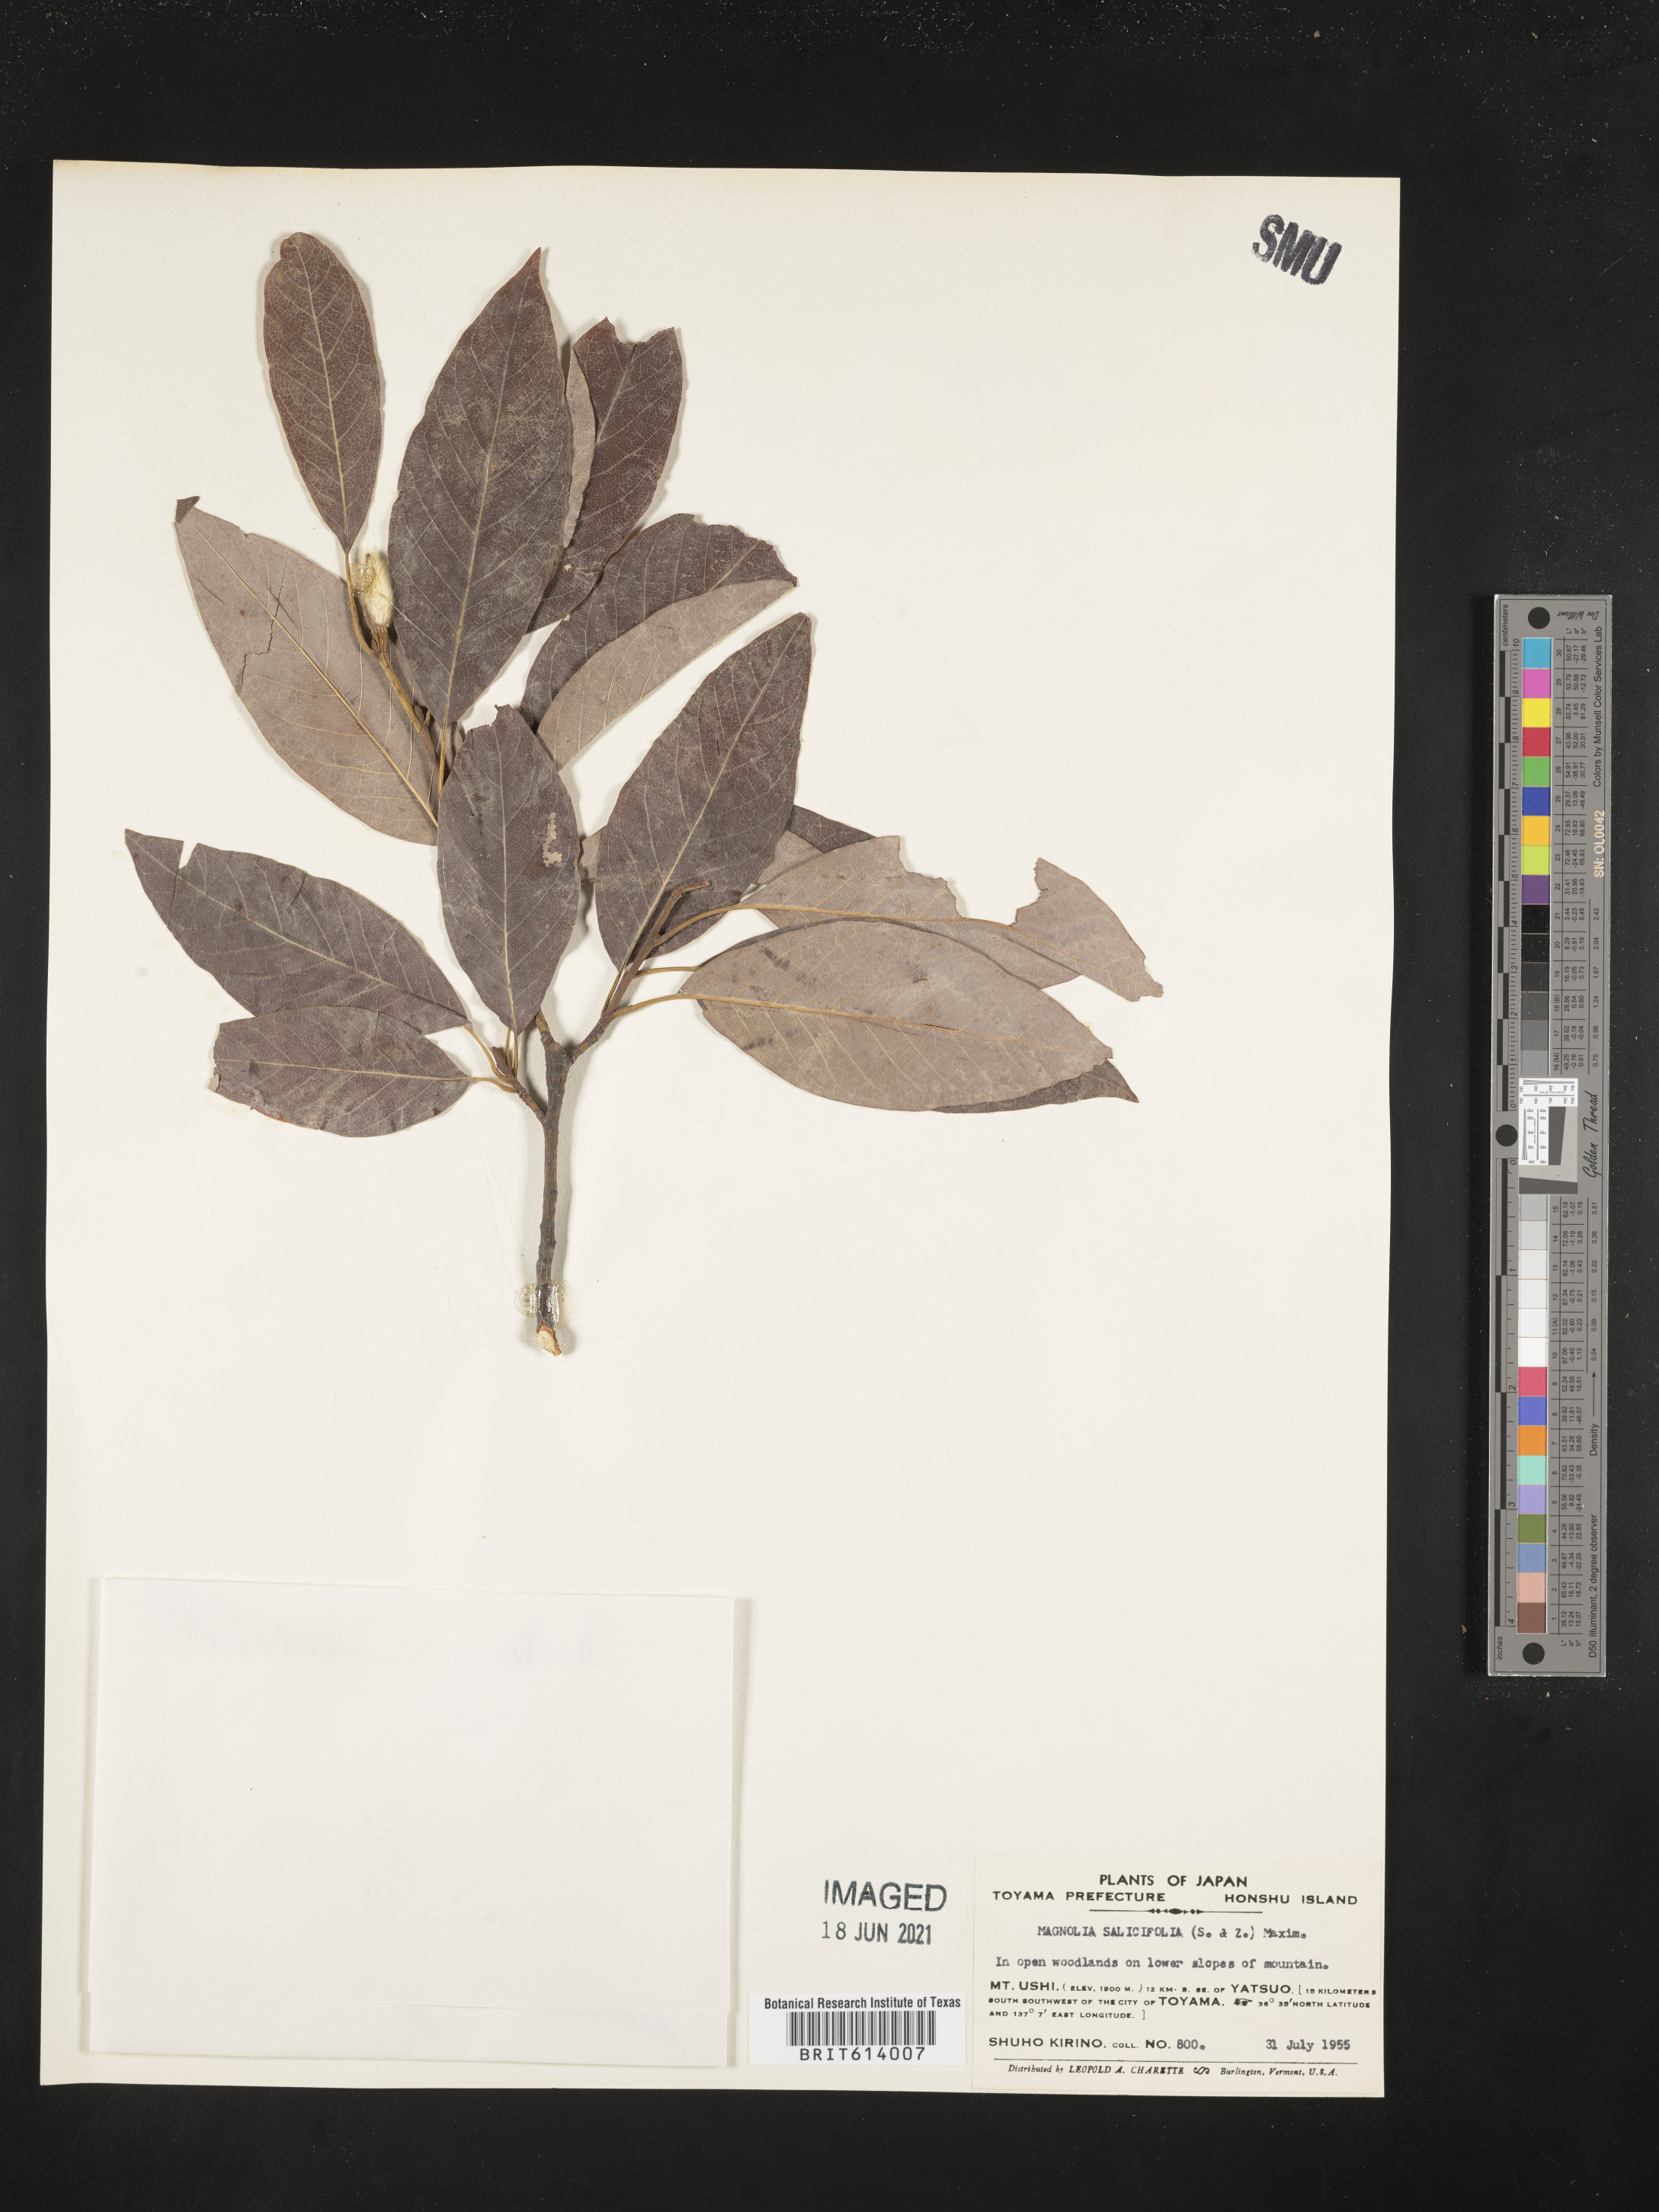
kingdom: Plantae
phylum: Tracheophyta
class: Magnoliopsida
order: Magnoliales
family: Magnoliaceae
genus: Magnolia
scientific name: Magnolia salicifolia
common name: Anise magnolia
